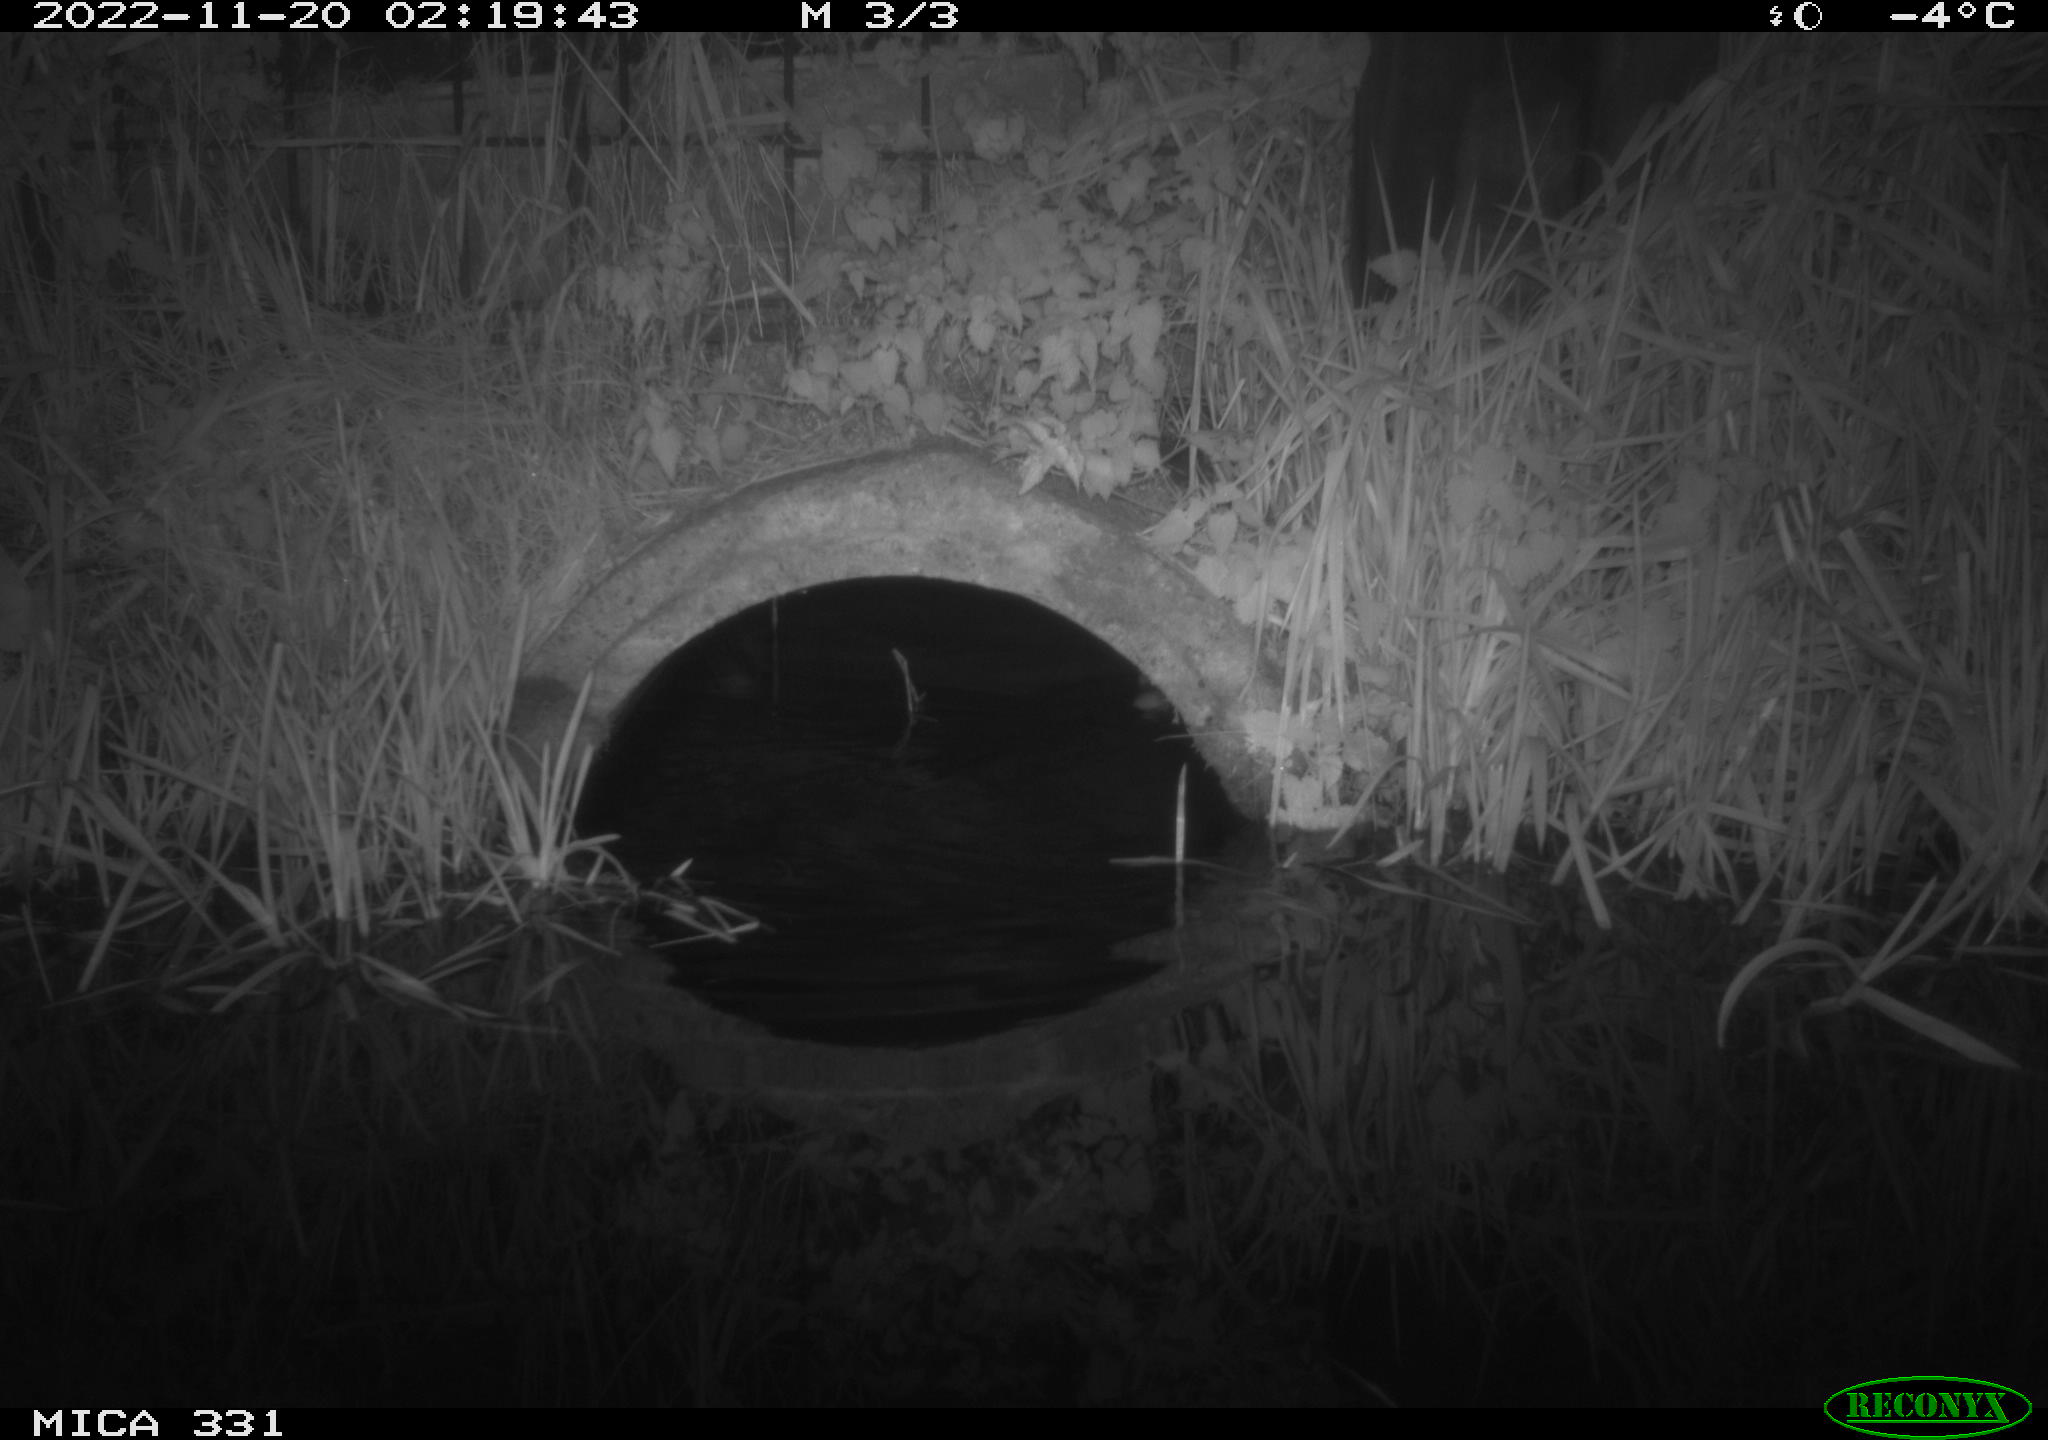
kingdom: Animalia
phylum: Chordata
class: Mammalia
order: Rodentia
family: Muridae
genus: Rattus
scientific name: Rattus norvegicus
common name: Brown rat
